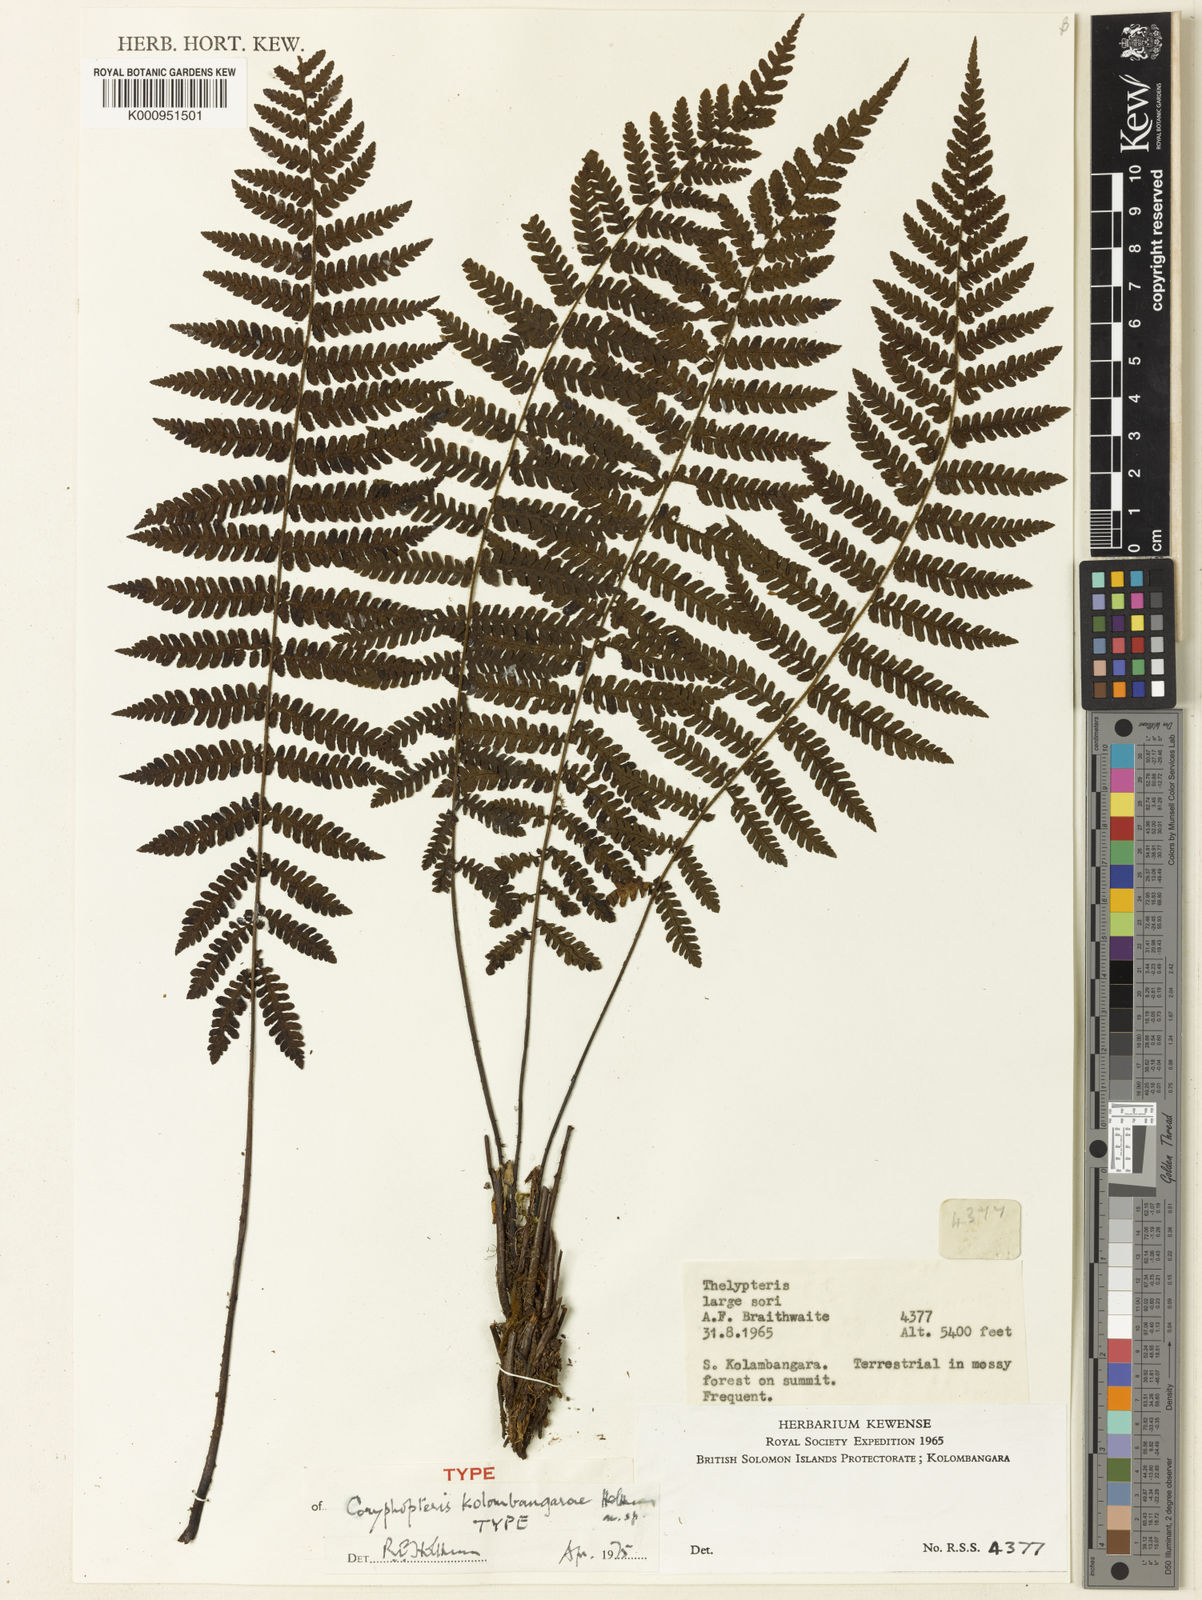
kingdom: Plantae
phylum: Tracheophyta
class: Polypodiopsida
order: Polypodiales
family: Thelypteridaceae
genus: Coryphopteris
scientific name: Coryphopteris kolombangarae
